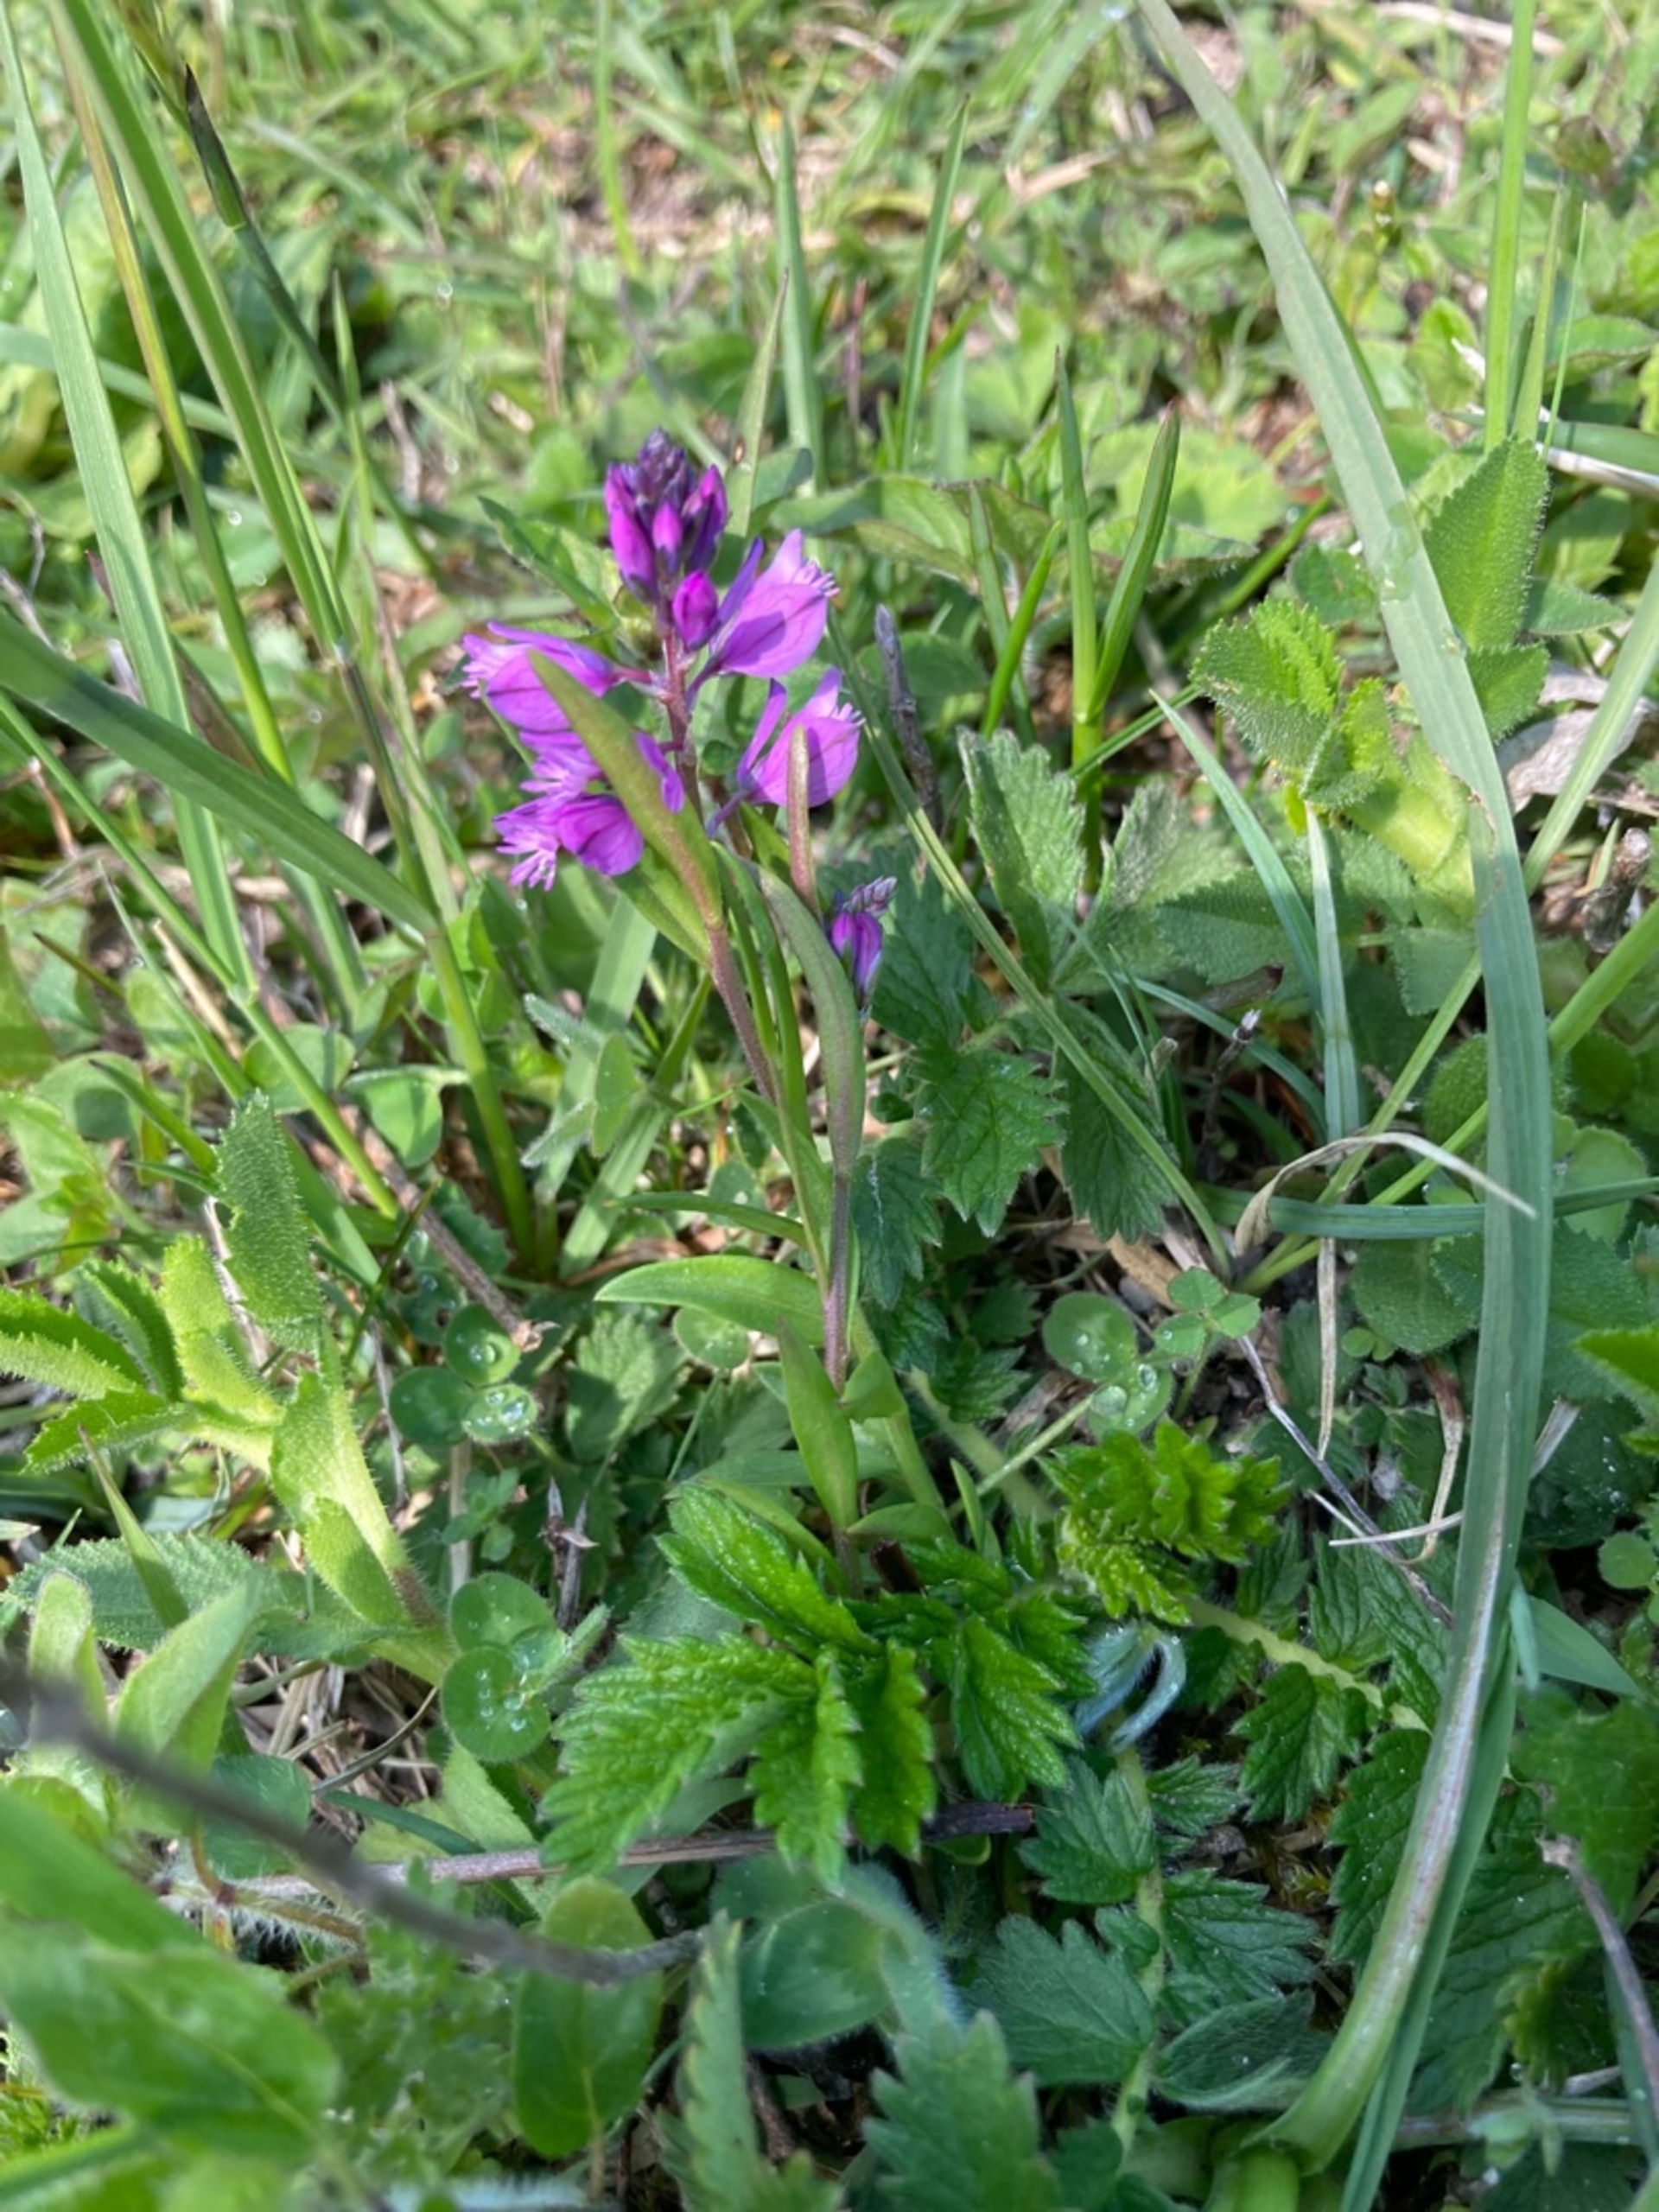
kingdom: Plantae
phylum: Tracheophyta
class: Magnoliopsida
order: Fabales
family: Polygalaceae
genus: Polygala
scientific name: Polygala vulgaris
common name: Almindelig mælkeurt
